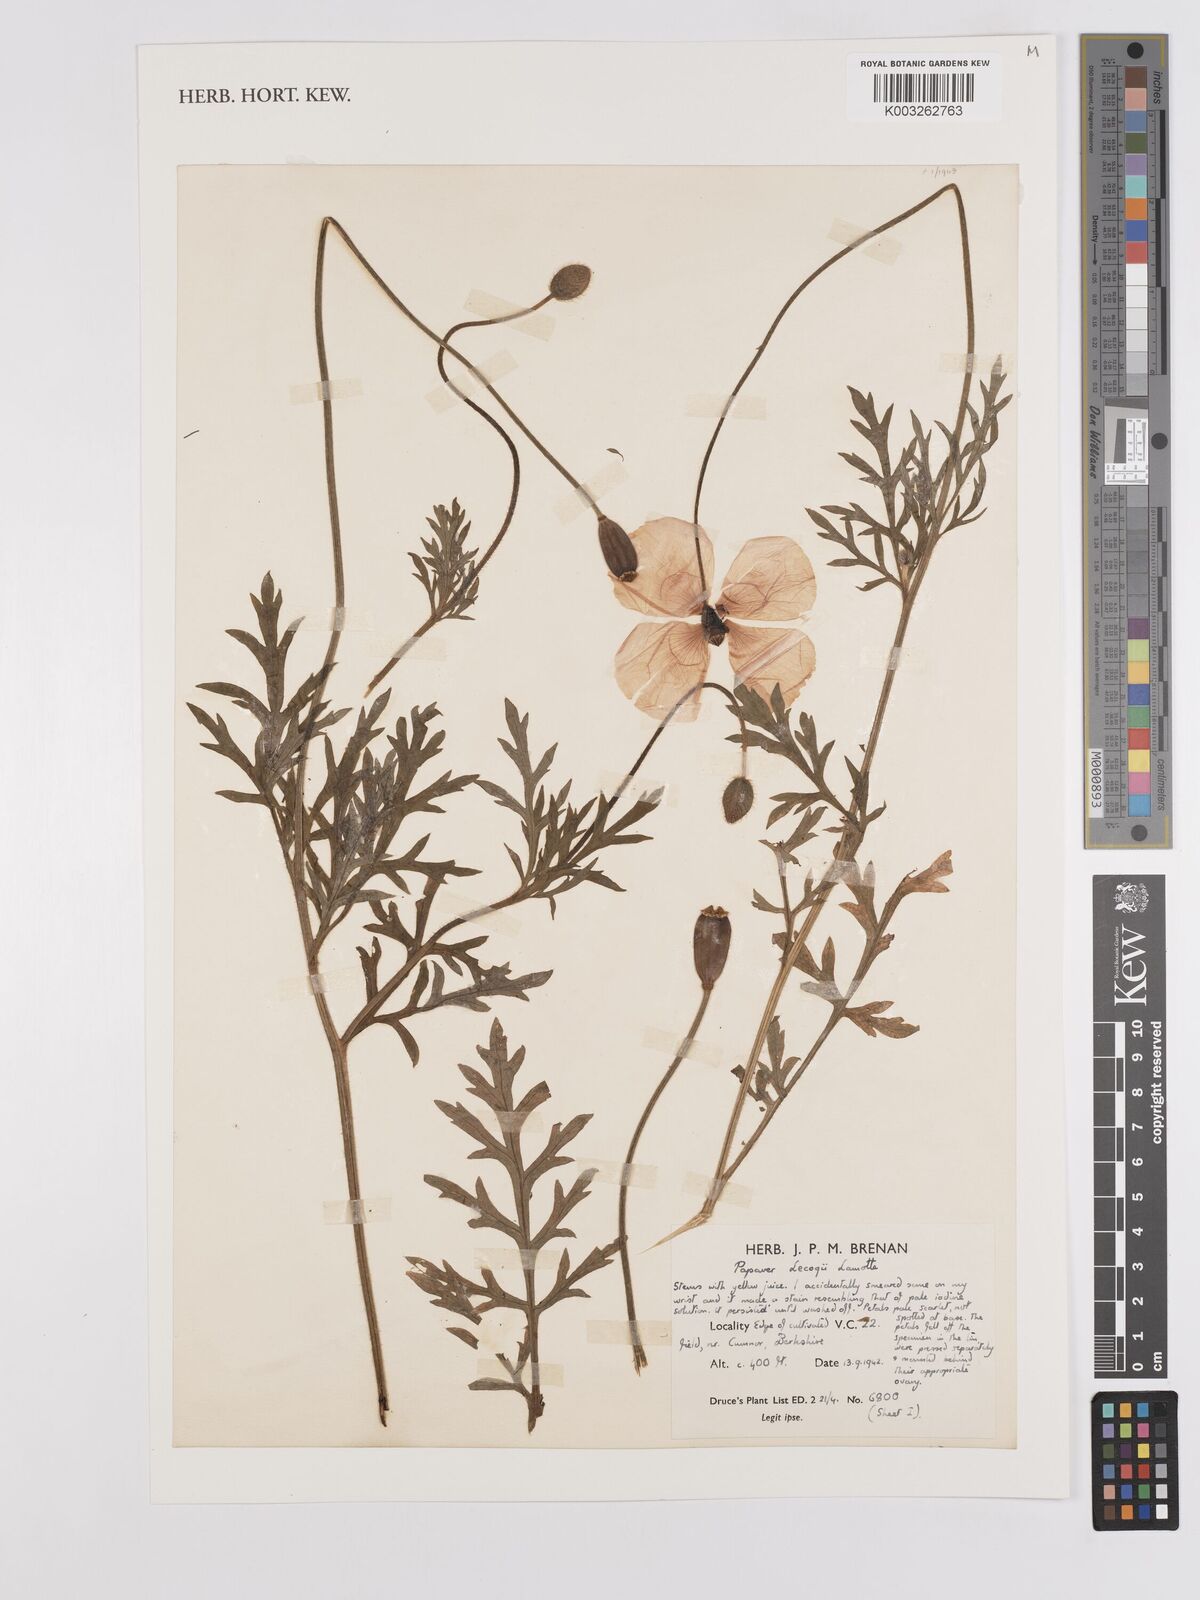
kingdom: Plantae
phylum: Tracheophyta
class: Magnoliopsida
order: Ranunculales
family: Papaveraceae
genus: Papaver
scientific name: Papaver lecoqii
